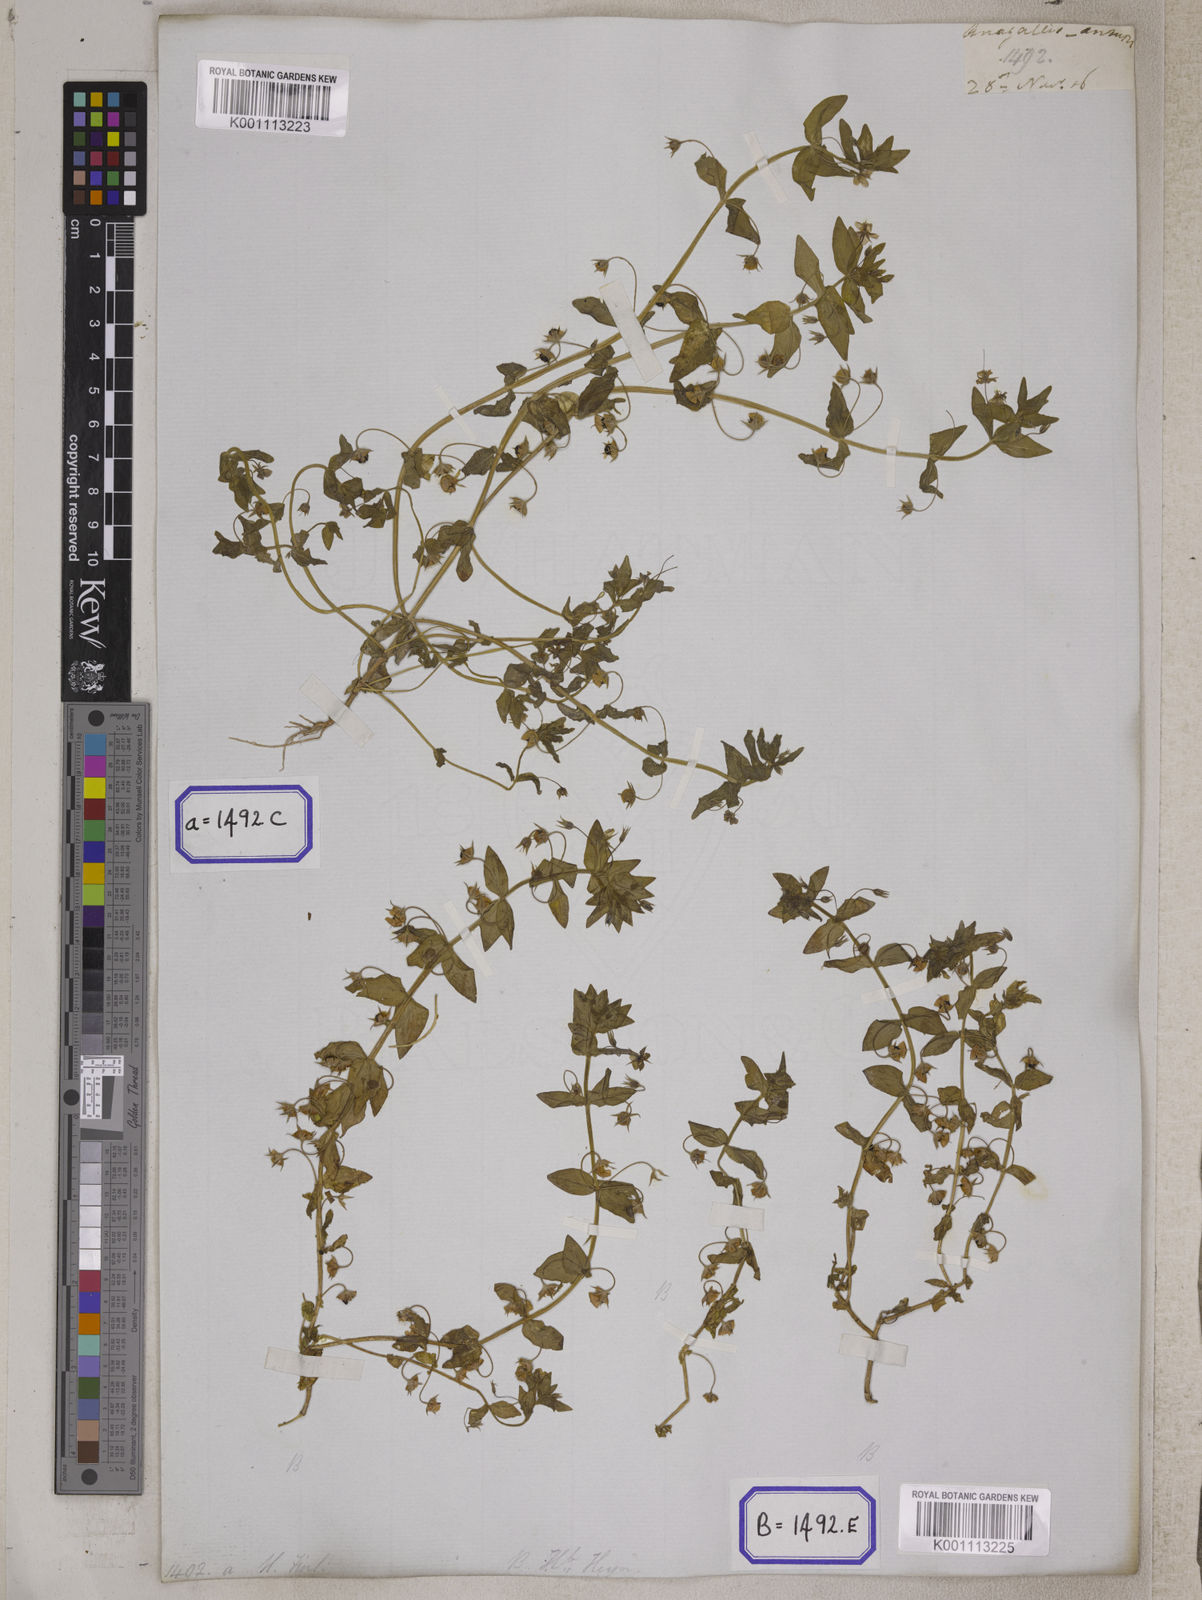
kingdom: Plantae
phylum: Tracheophyta
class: Magnoliopsida
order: Ericales
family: Primulaceae
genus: Lysimachia
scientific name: Lysimachia arvensis
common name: Scarlet pimpernel
